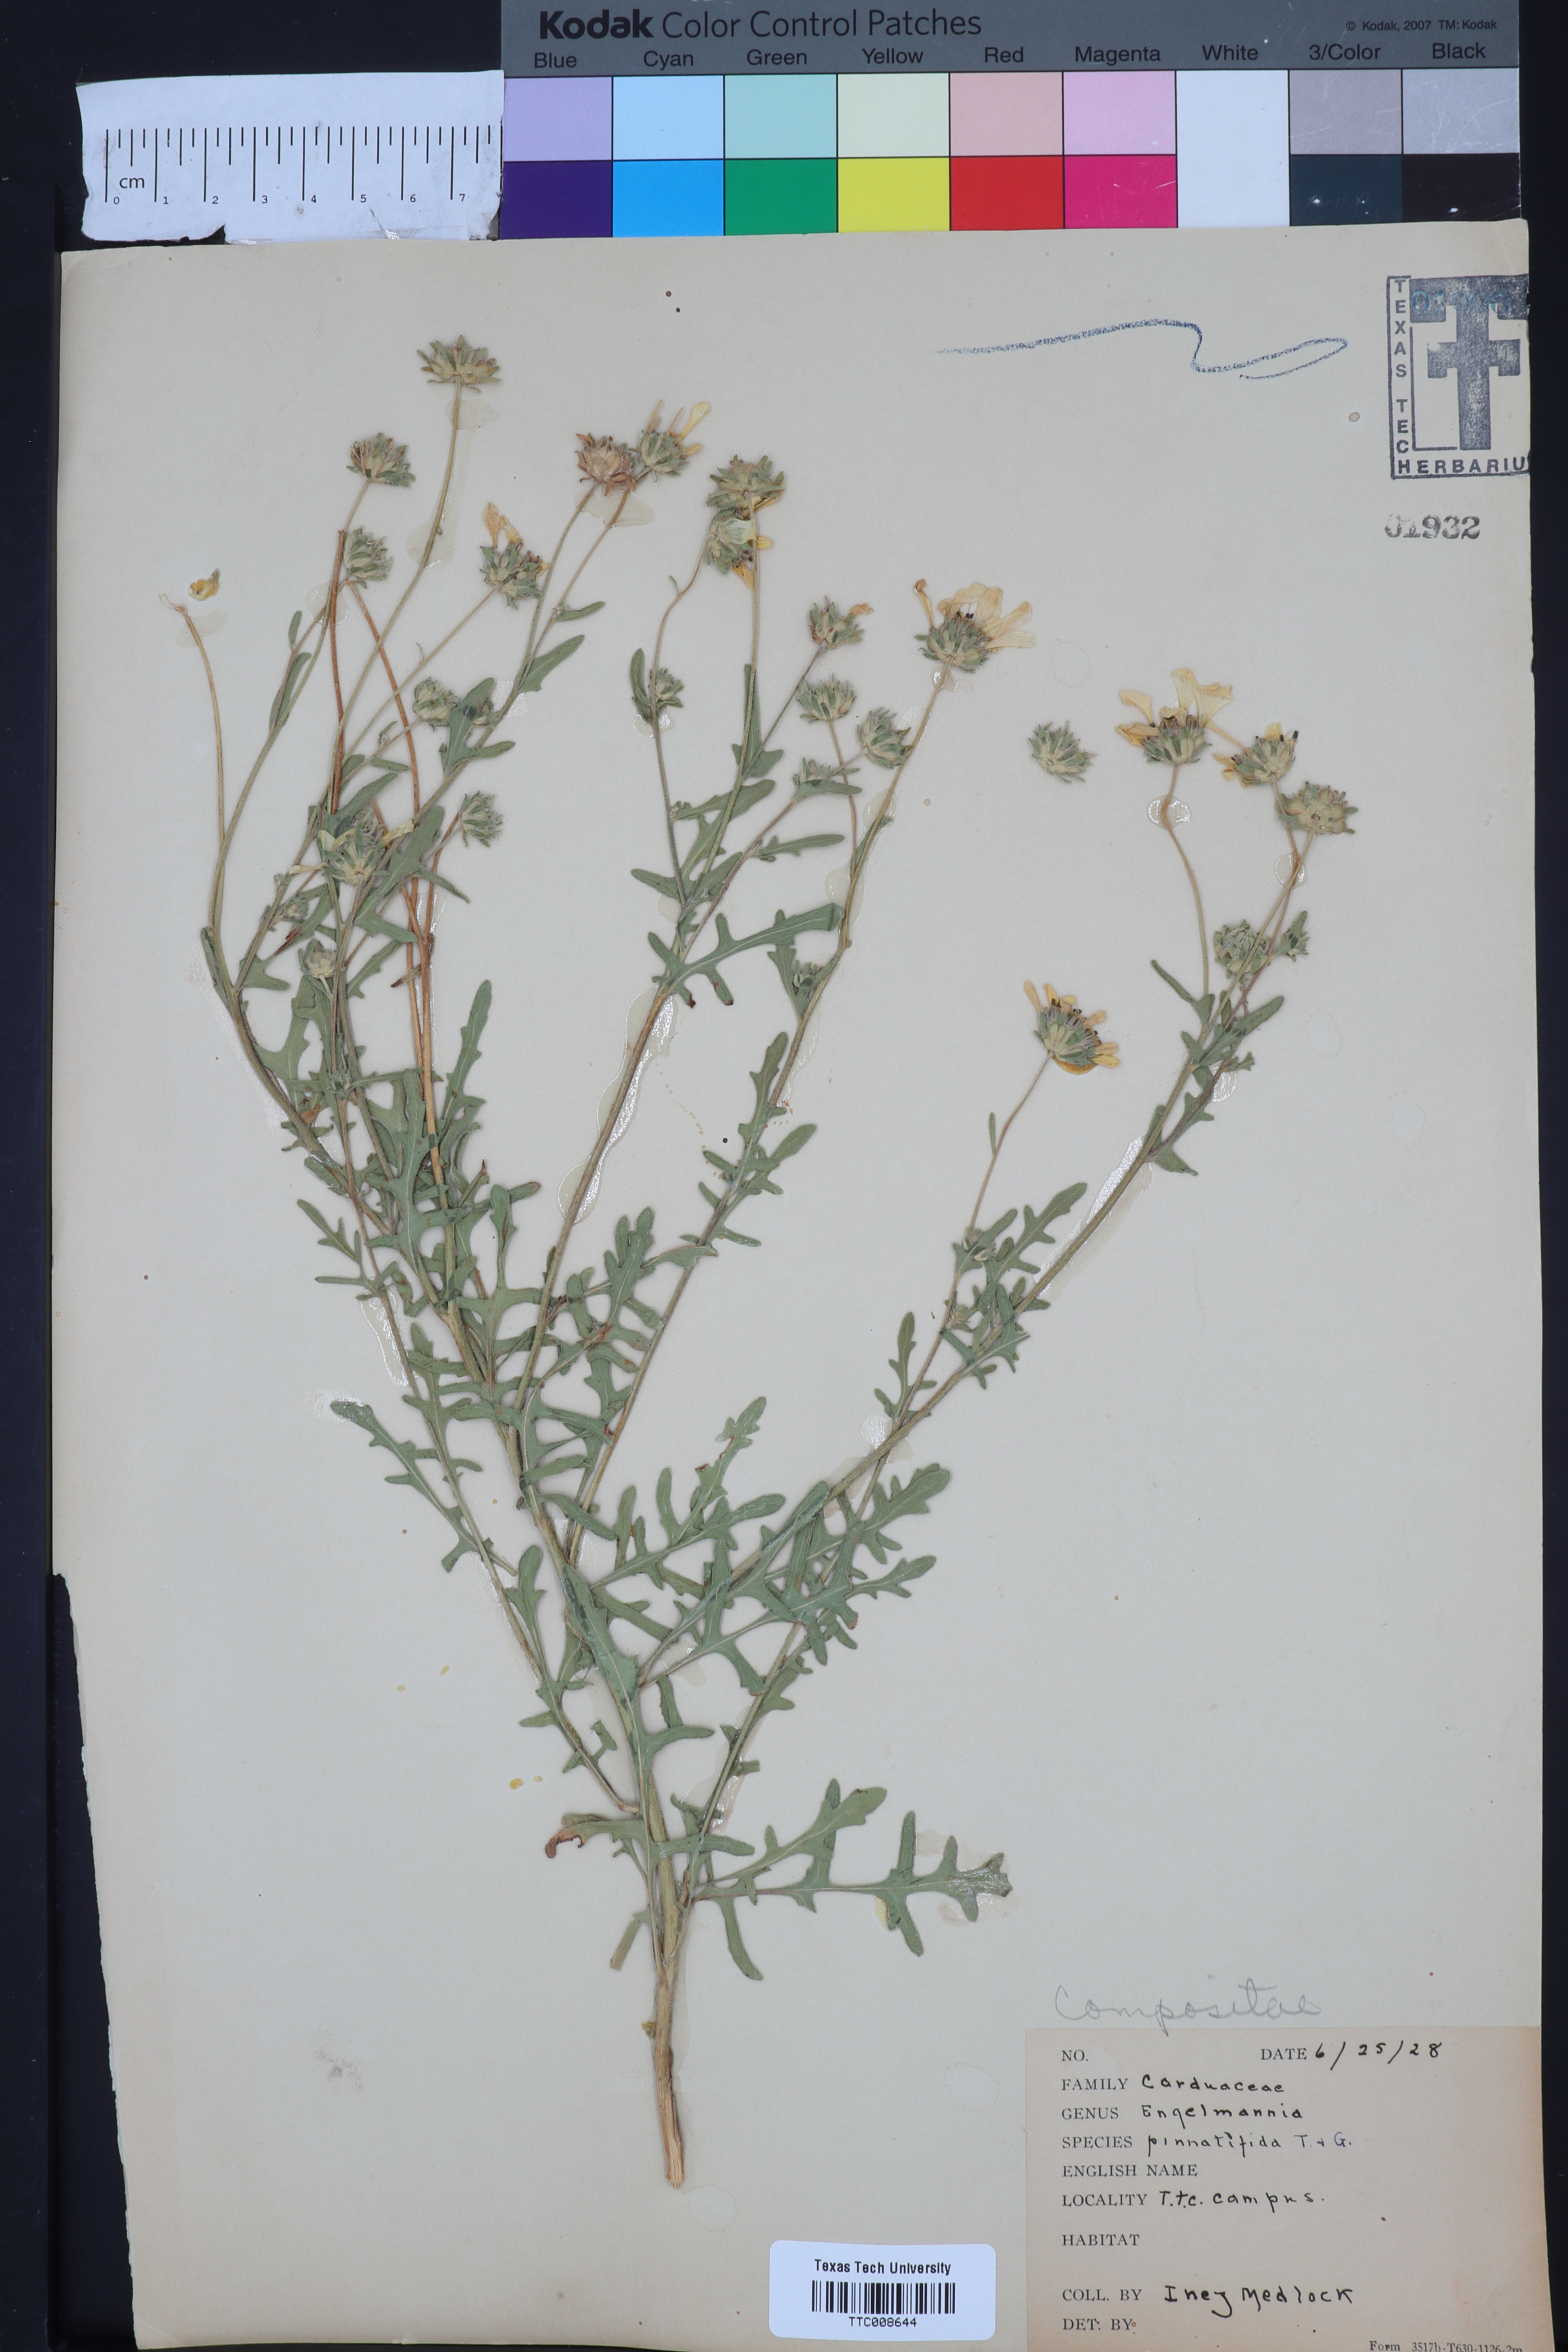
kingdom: Plantae
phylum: Tracheophyta
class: Magnoliopsida
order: Asterales
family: Asteraceae
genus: Engelmannia
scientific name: Engelmannia peristenia
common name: Engelmann's daisy
